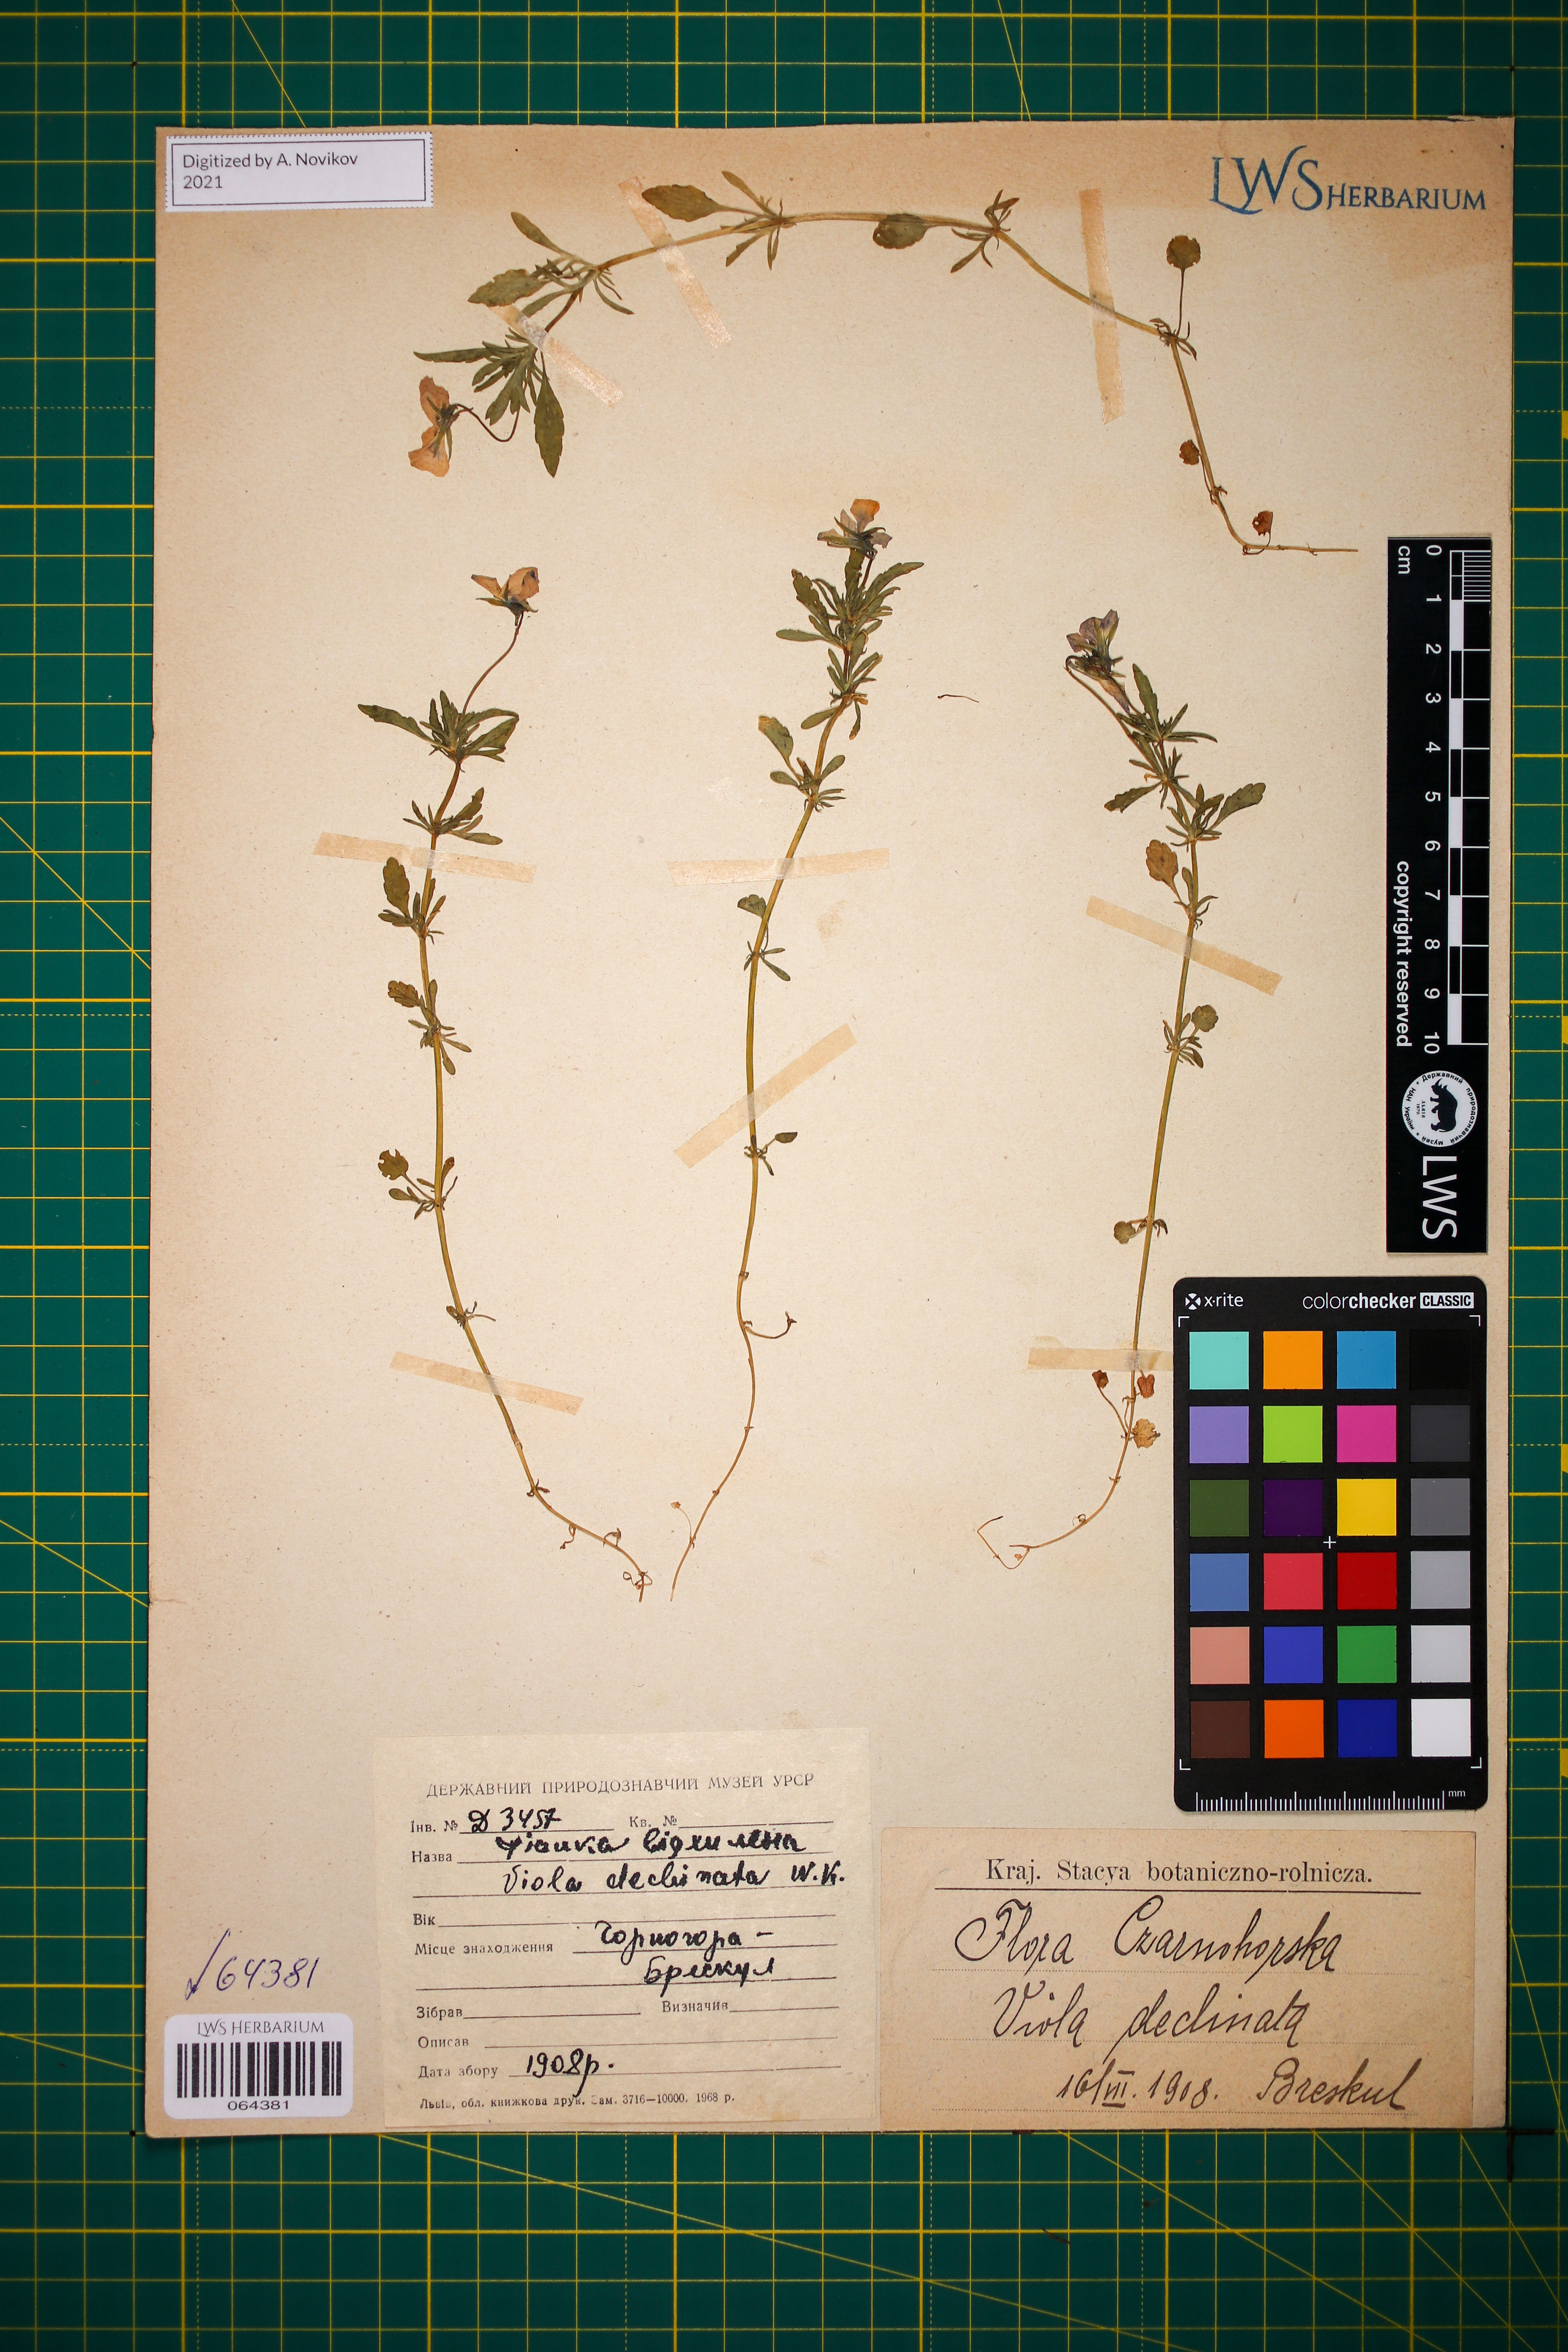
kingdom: Plantae
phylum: Tracheophyta
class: Magnoliopsida
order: Malpighiales
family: Violaceae
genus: Viola
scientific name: Viola declinata
